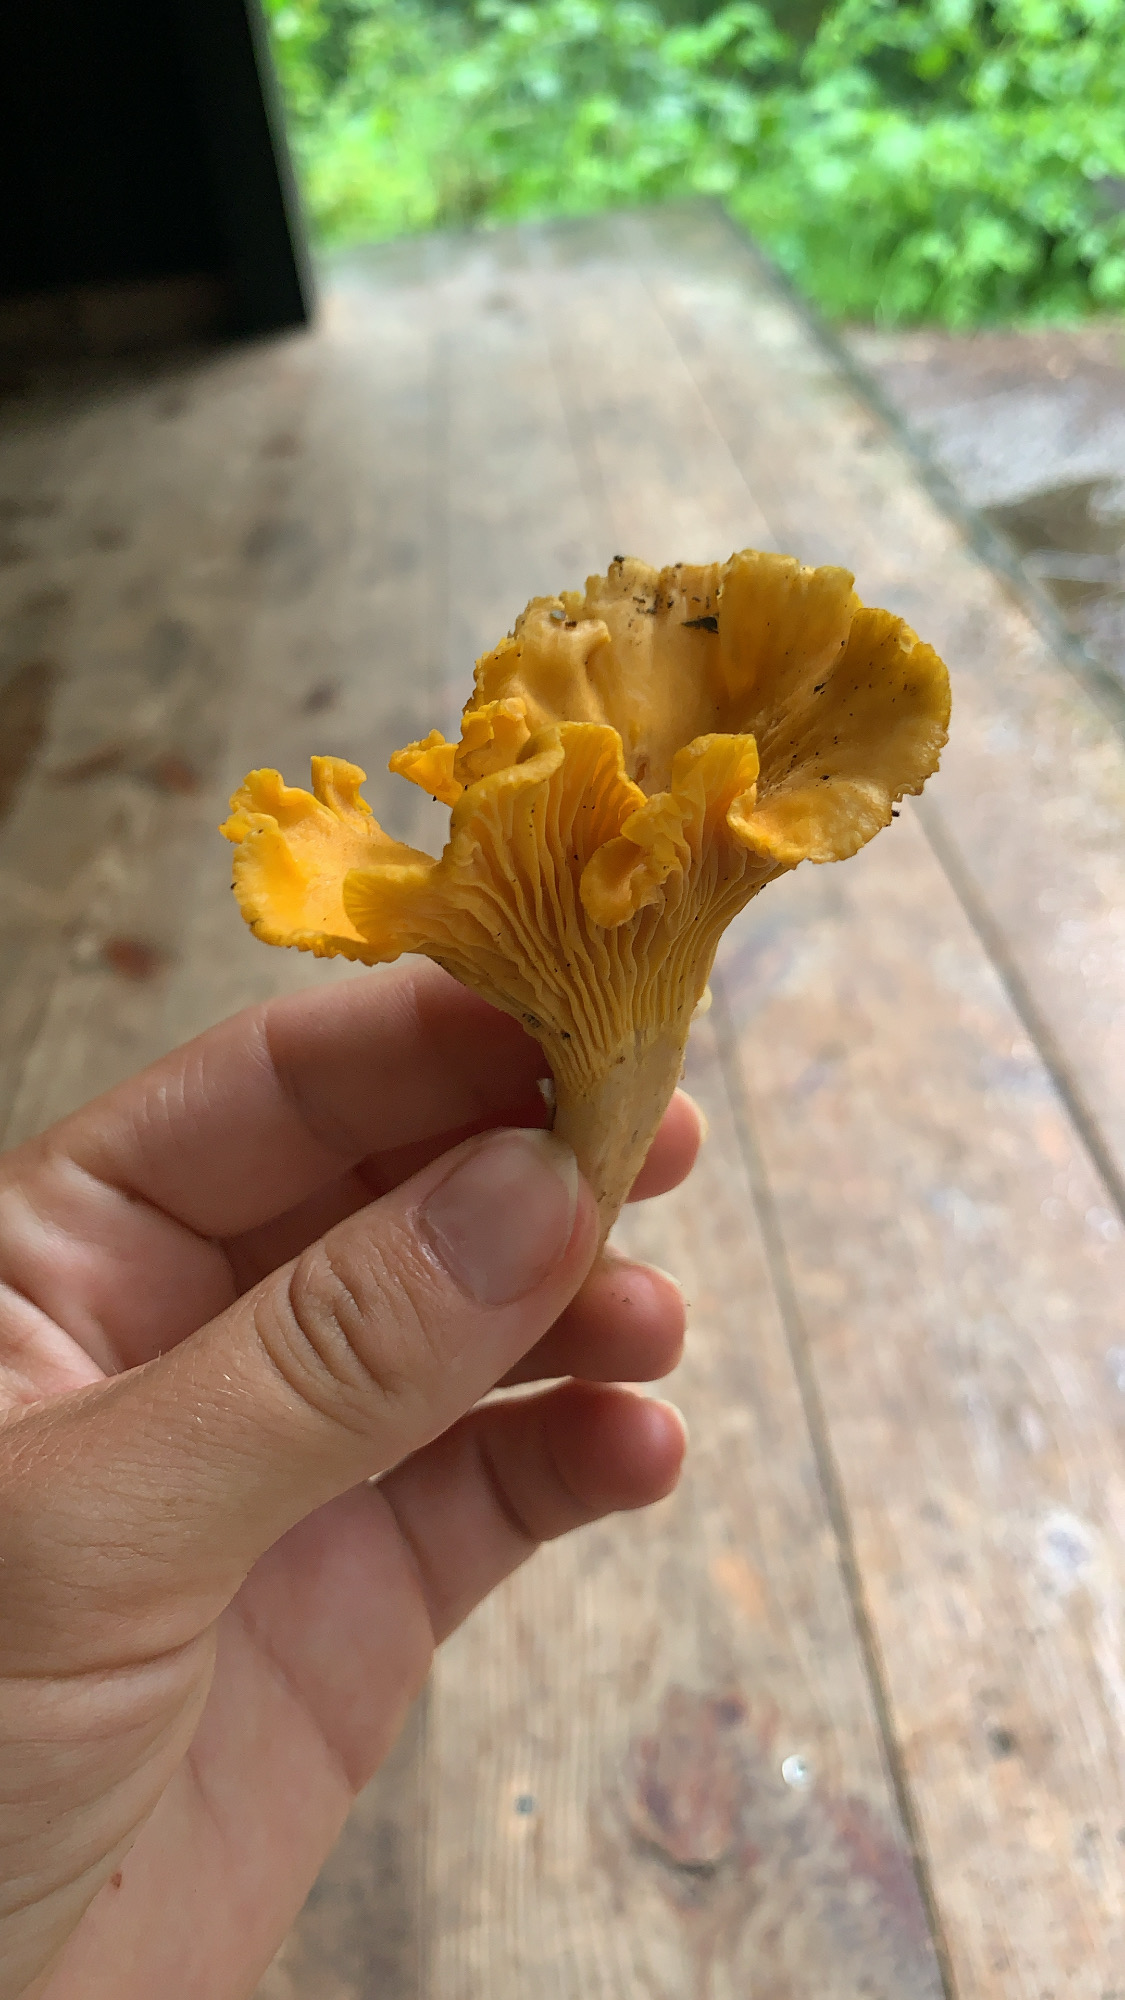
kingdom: Fungi
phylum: Basidiomycota
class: Agaricomycetes
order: Cantharellales
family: Hydnaceae
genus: Cantharellus
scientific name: Cantharellus cibarius
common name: almindelig kantarel
